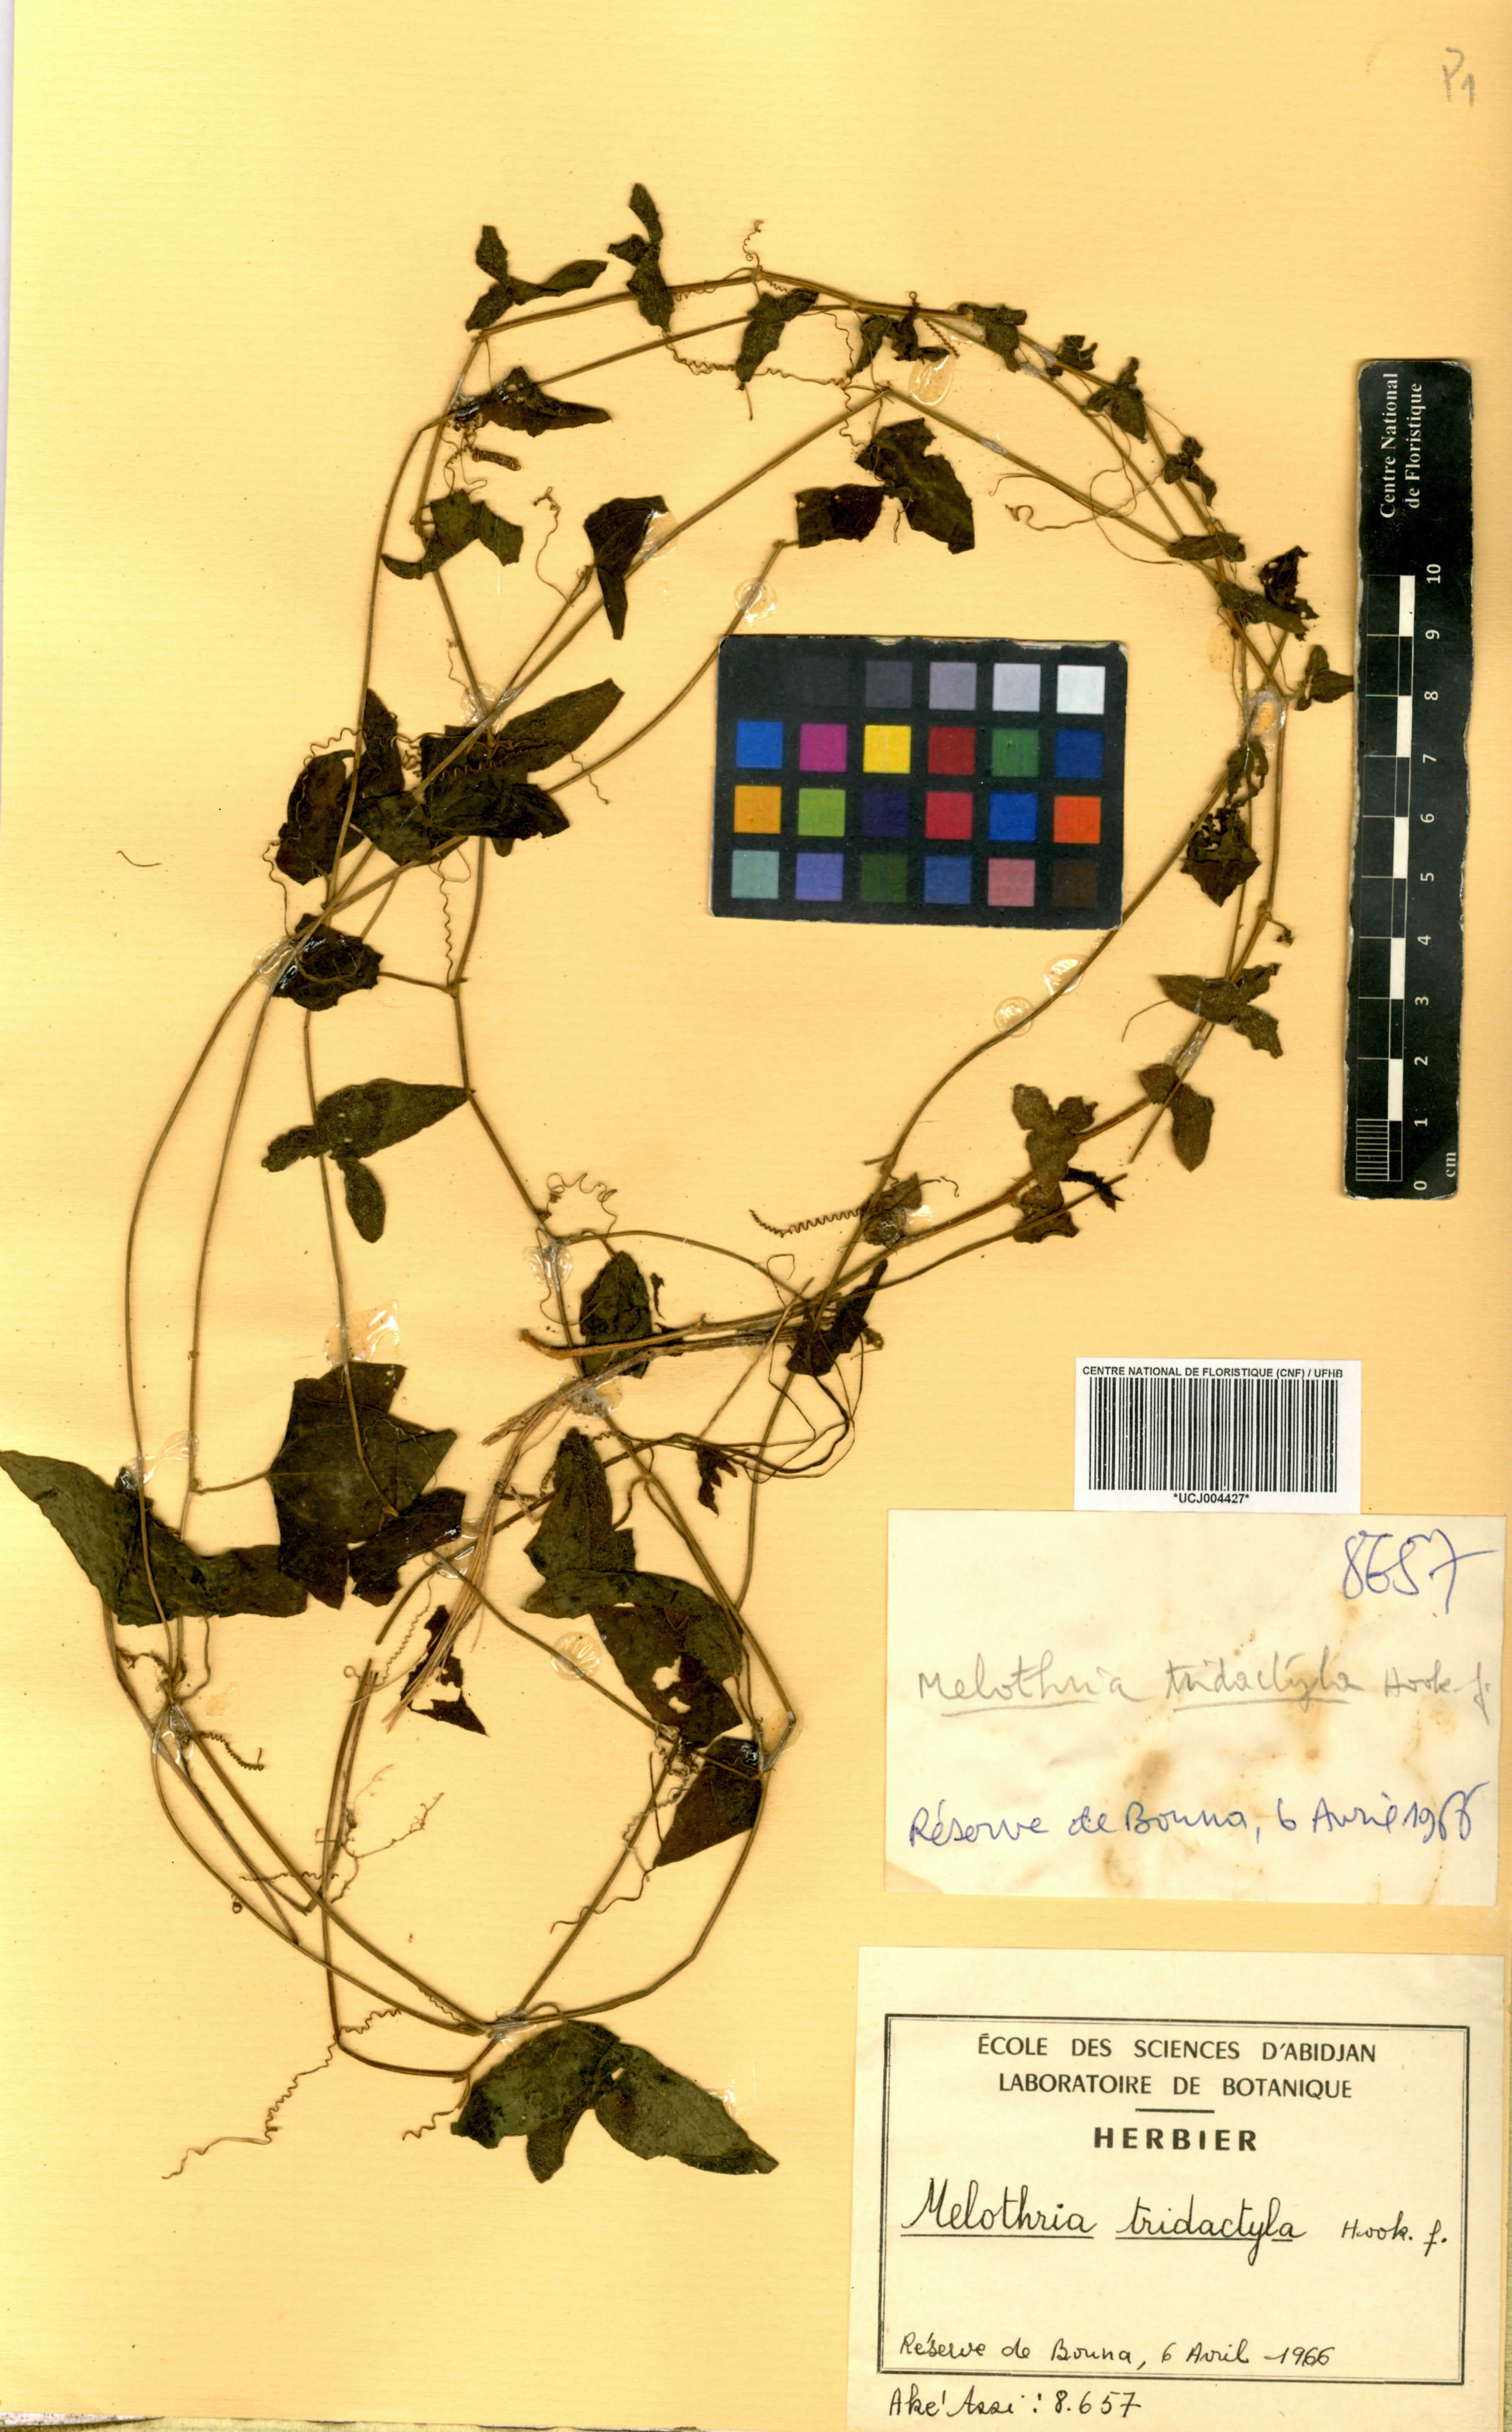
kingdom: Plantae
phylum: Tracheophyta
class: Magnoliopsida
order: Cucurbitales
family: Cucurbitaceae
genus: Zehneria
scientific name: Zehneria thwaitesii
